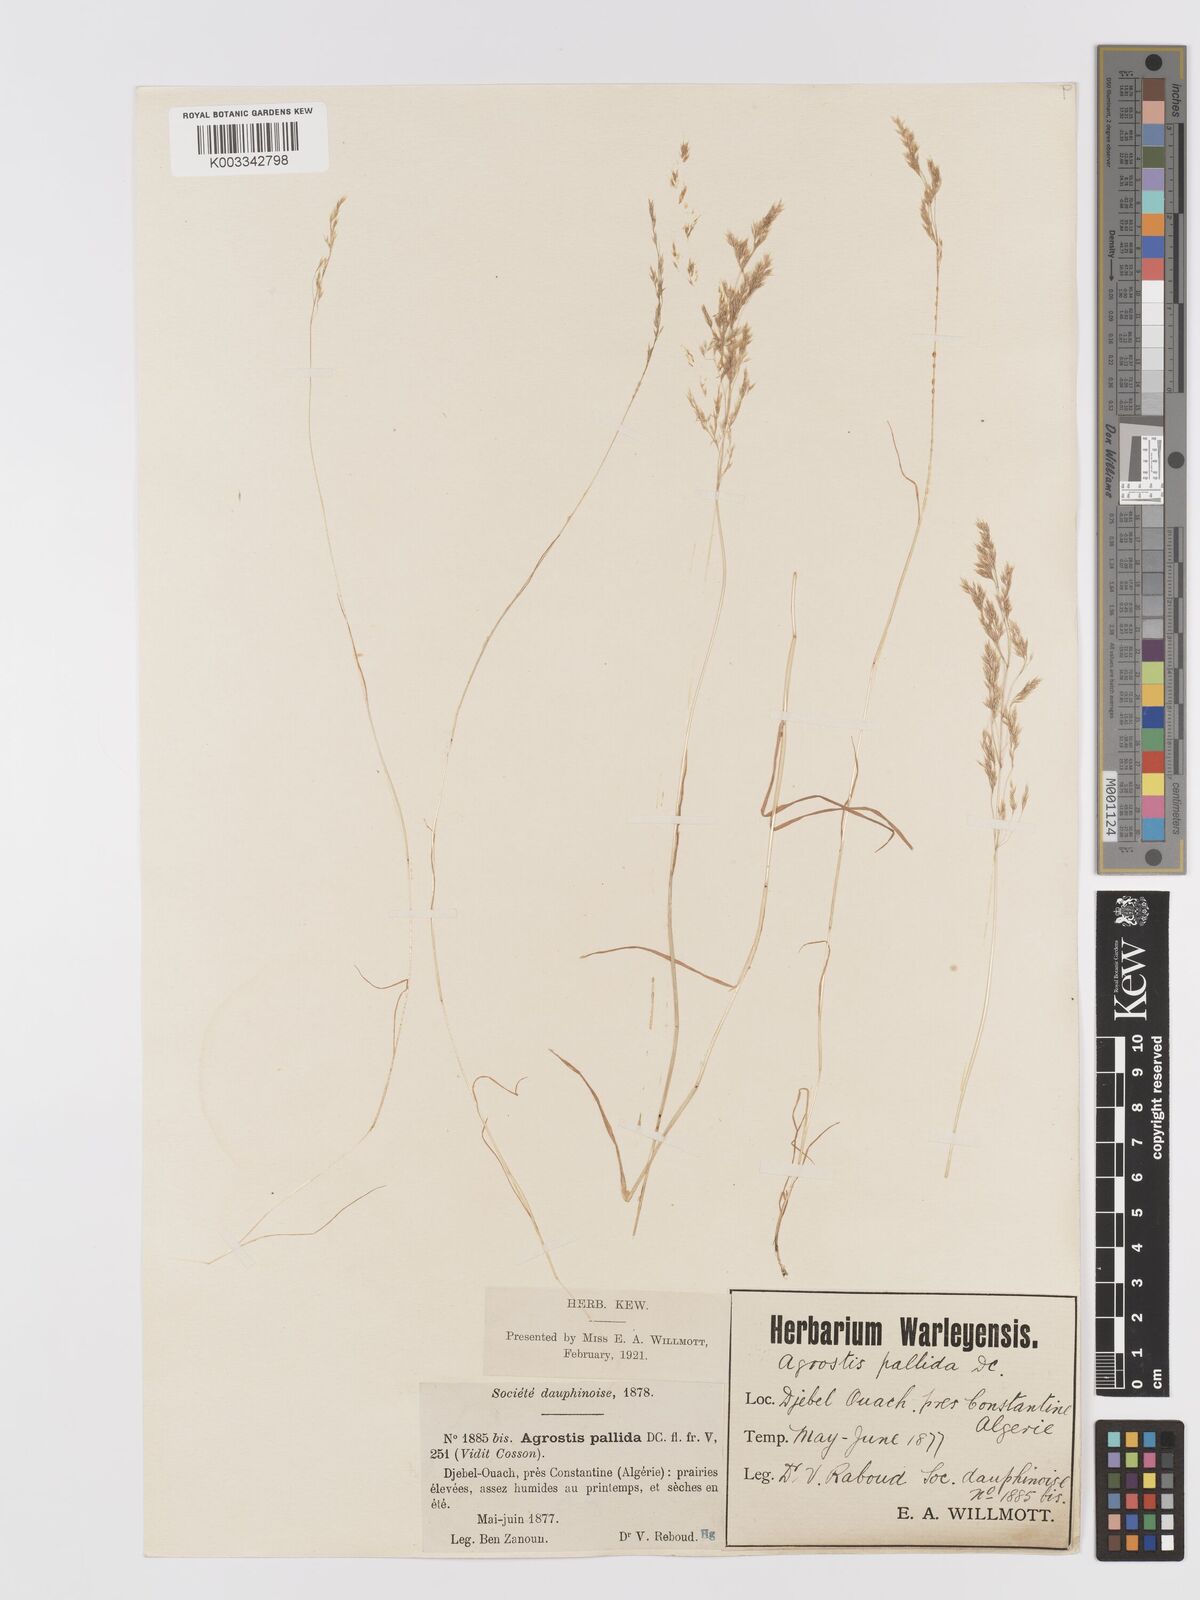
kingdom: Plantae
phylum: Tracheophyta
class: Liliopsida
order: Poales
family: Poaceae
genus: Agrostis
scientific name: Agrostis pourretii
